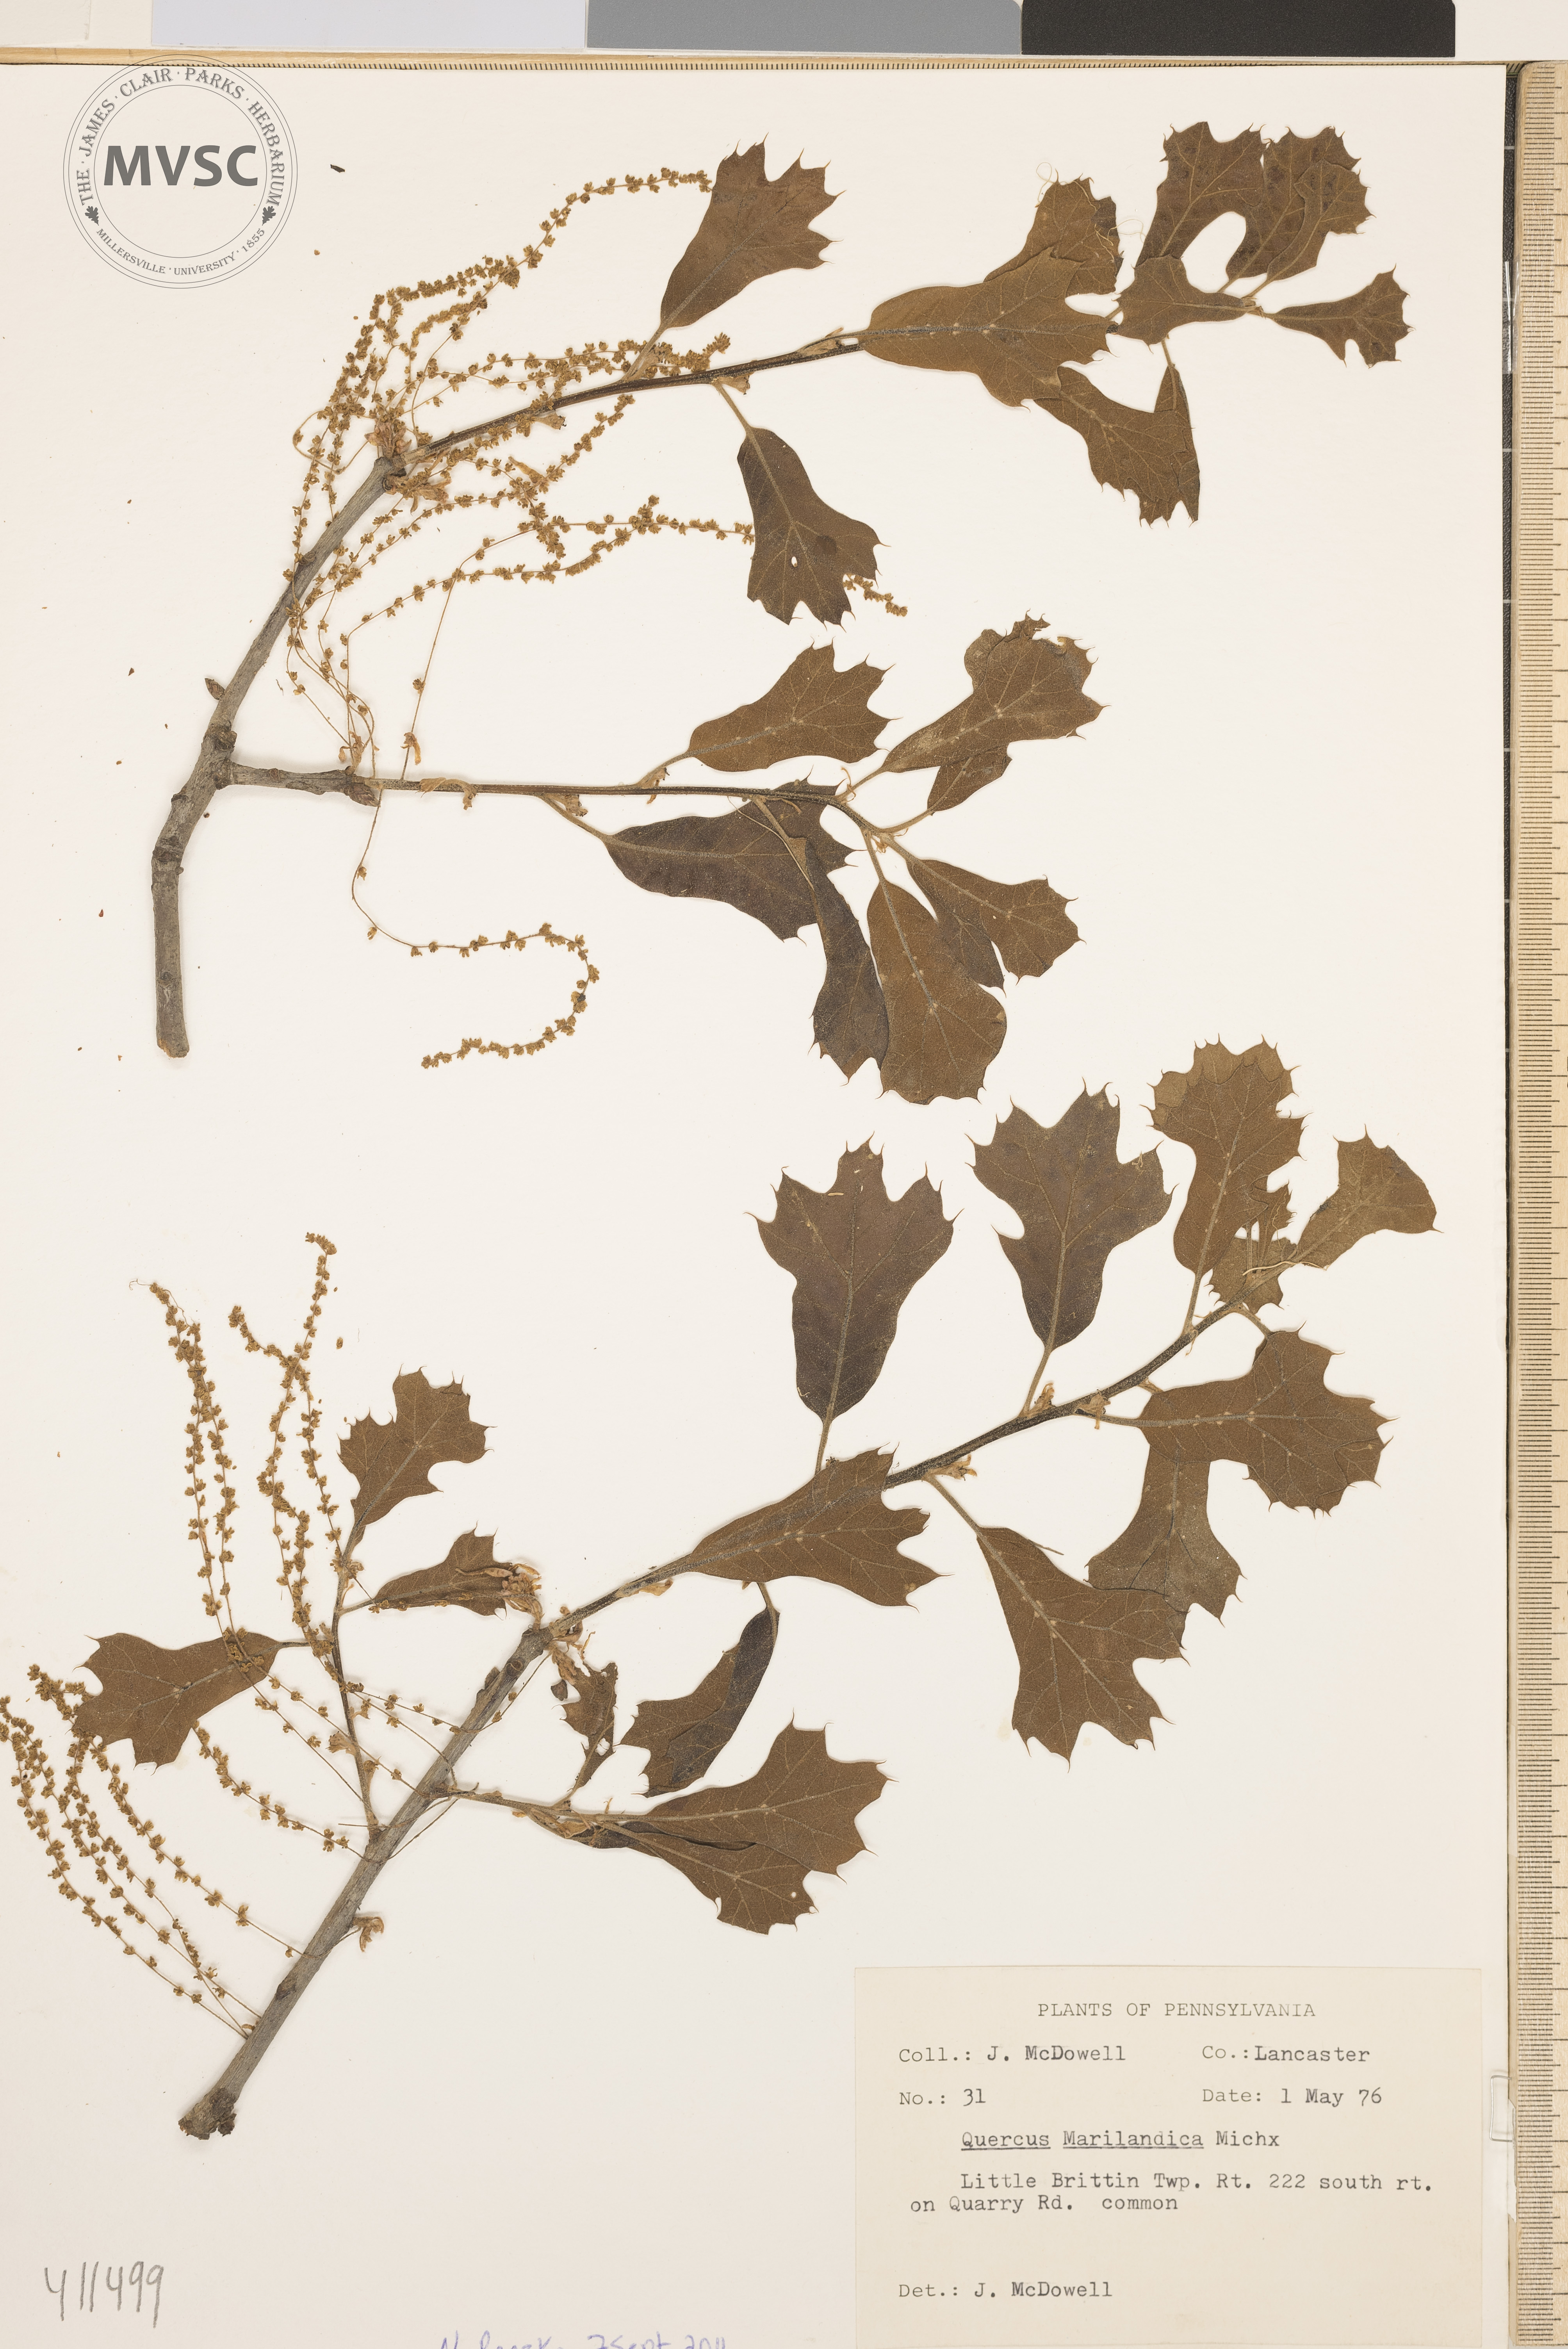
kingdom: Plantae
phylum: Tracheophyta
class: Magnoliopsida
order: Fagales
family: Fagaceae
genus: Quercus
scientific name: Quercus marilandica
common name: Blackjack Oak
